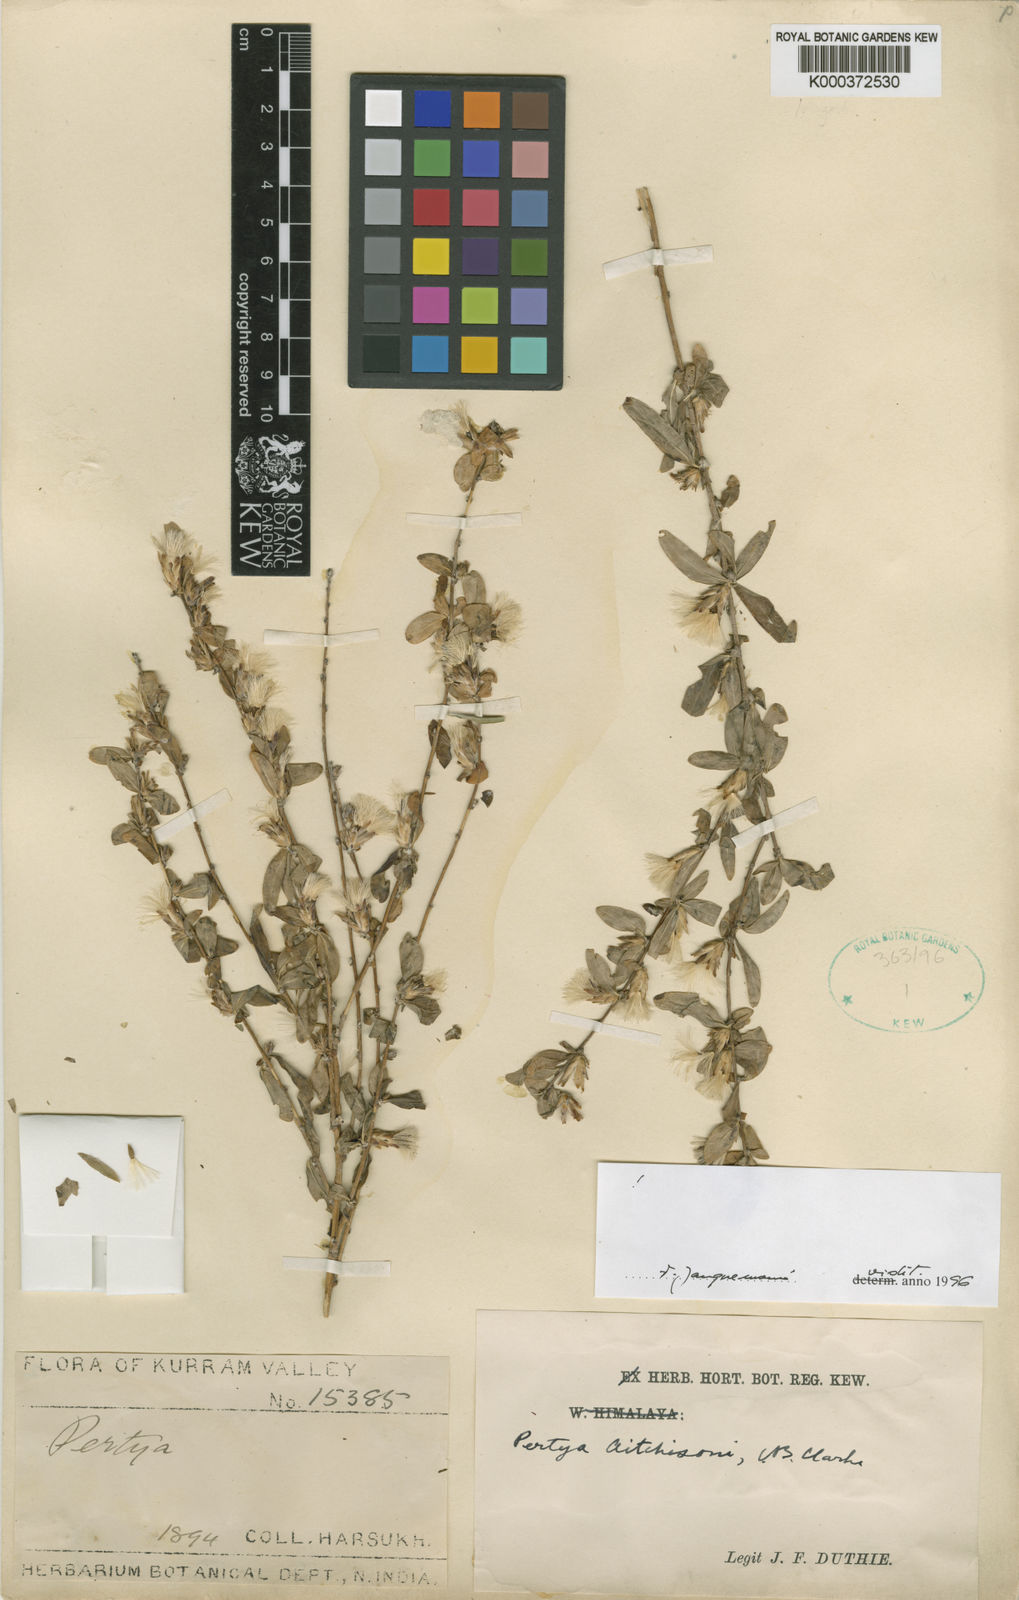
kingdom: Plantae
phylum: Tracheophyta
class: Magnoliopsida
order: Asterales
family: Asteraceae
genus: Pertya
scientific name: Pertya aitchisonii
